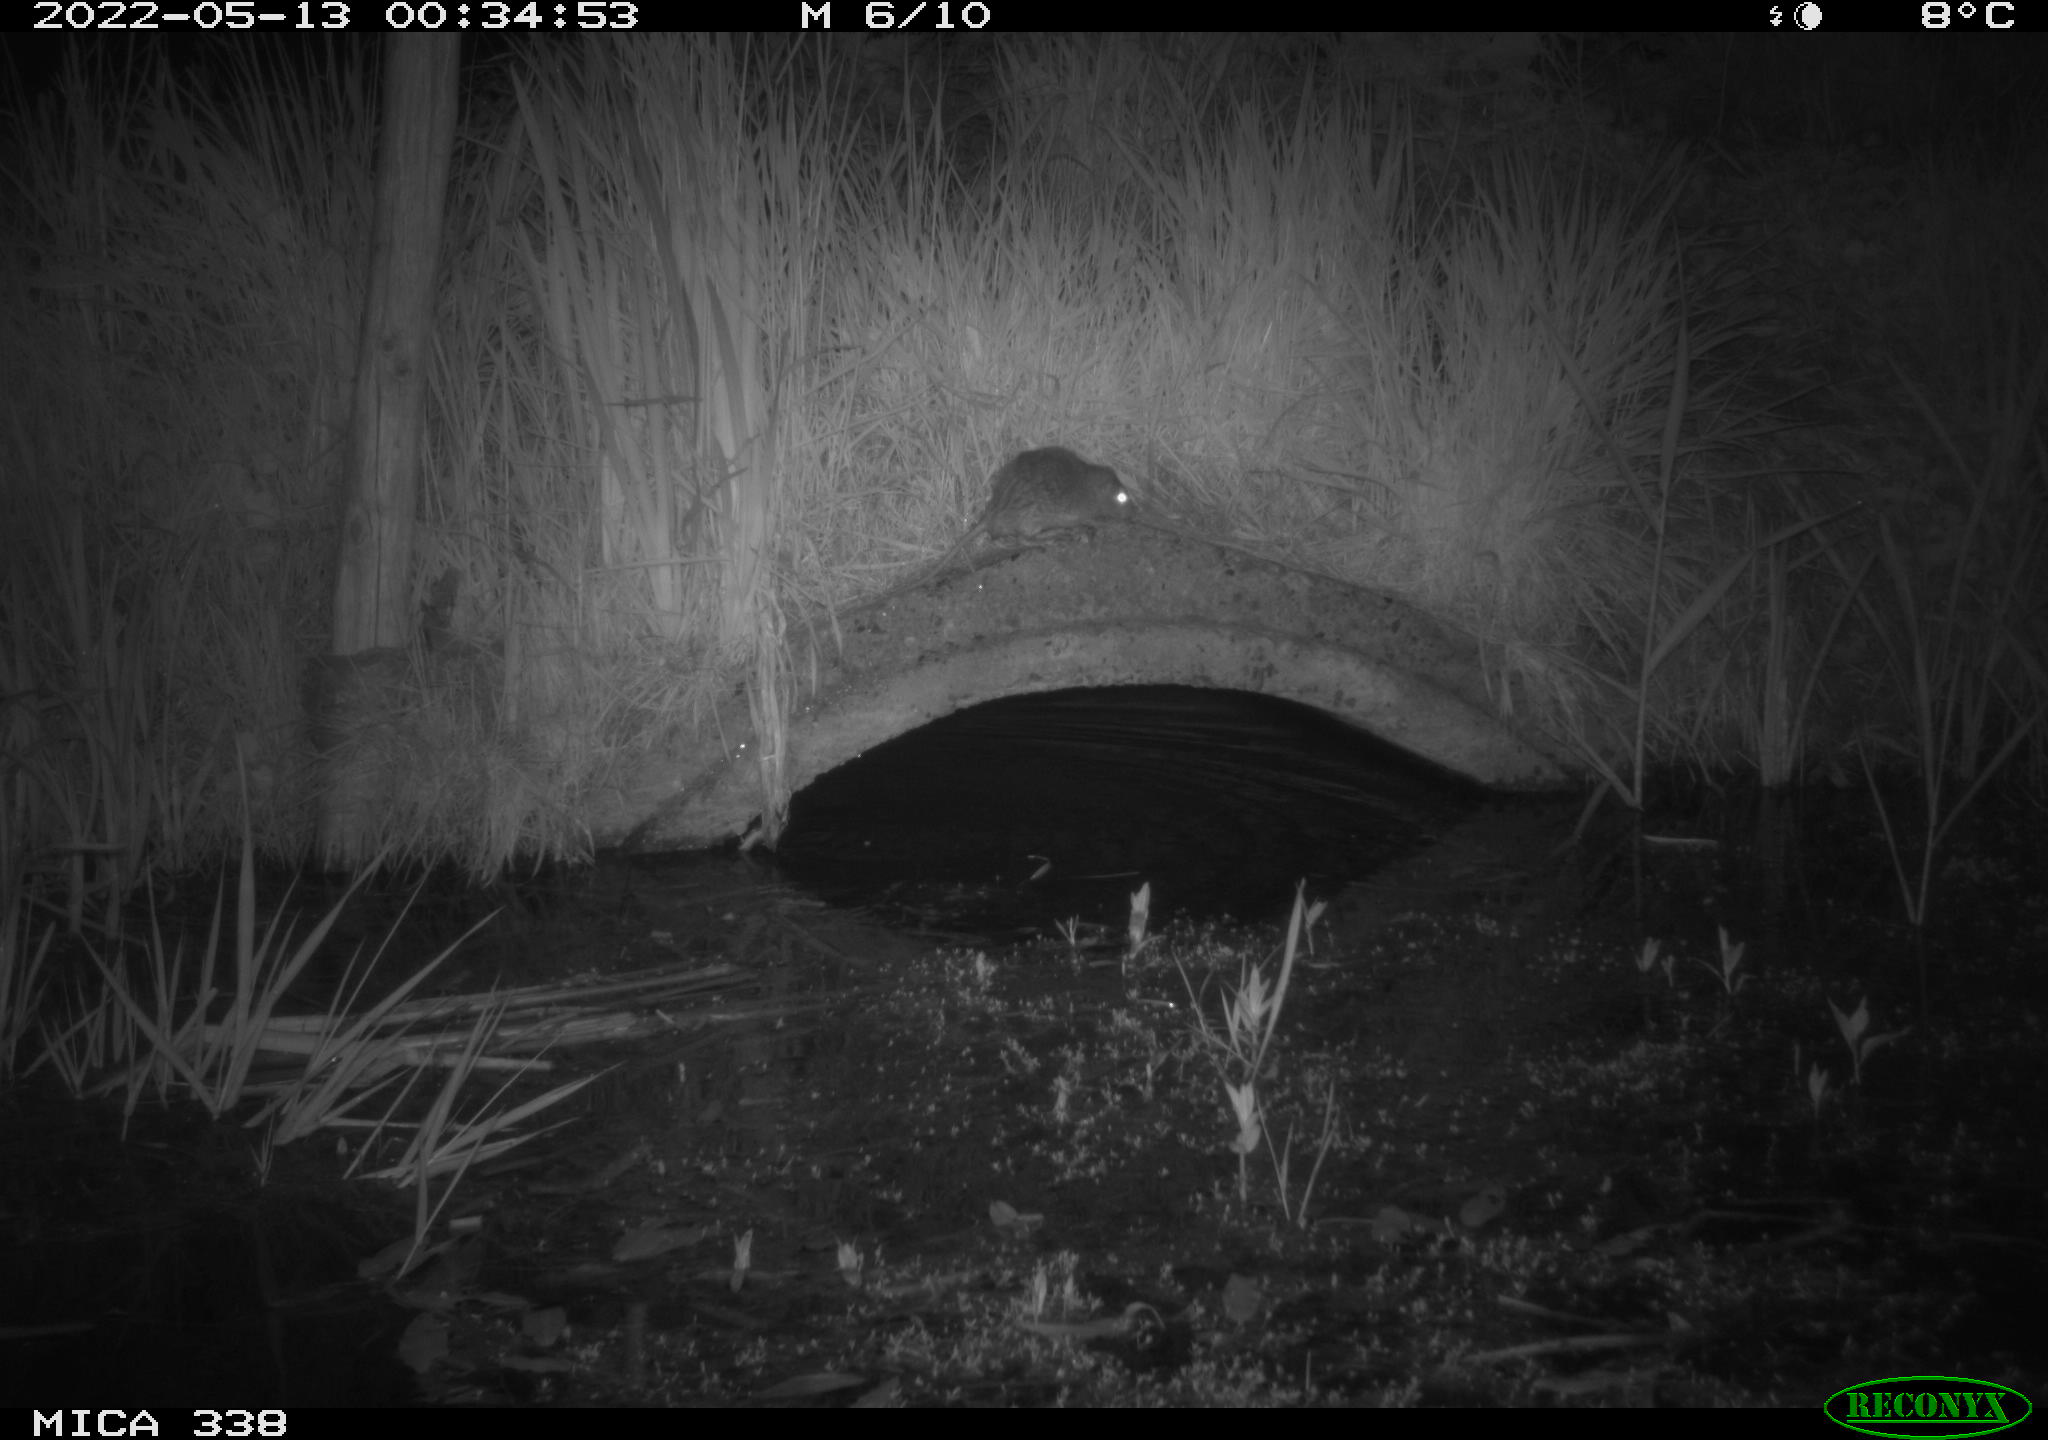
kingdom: Animalia
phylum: Chordata
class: Mammalia
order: Rodentia
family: Muridae
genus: Rattus
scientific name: Rattus norvegicus
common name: Brown rat
